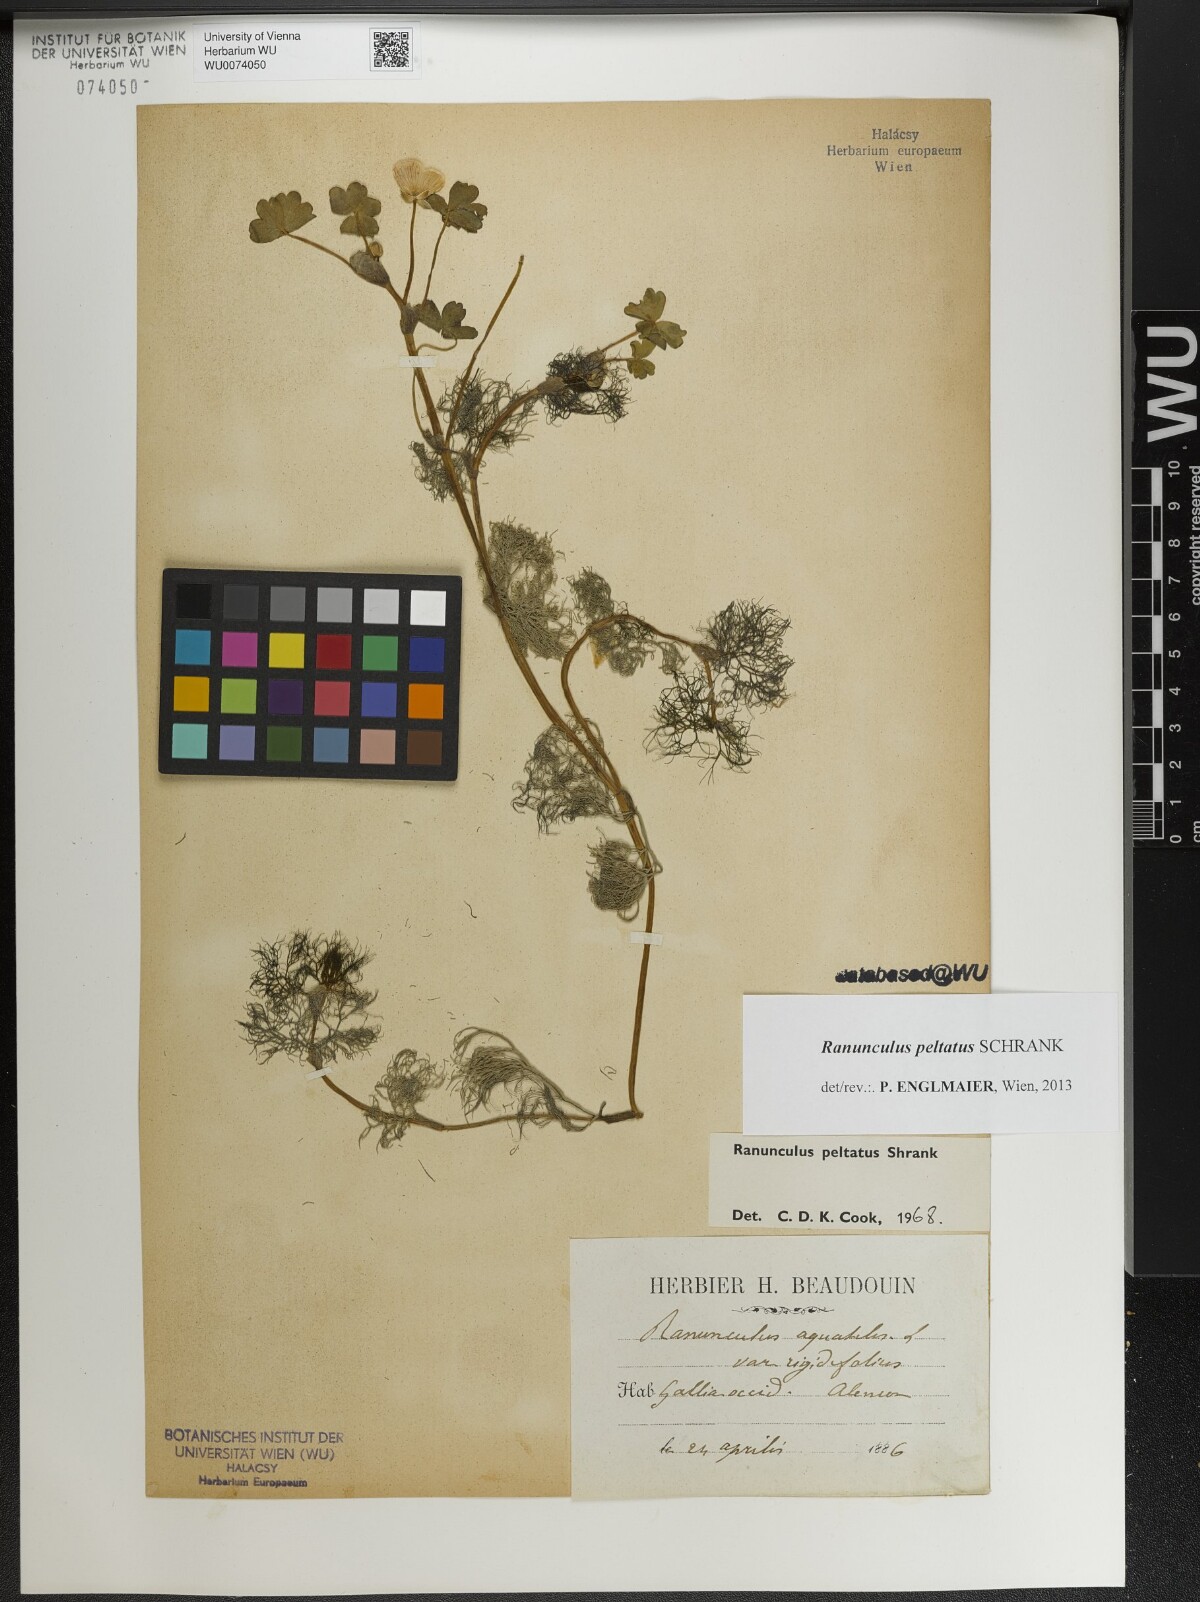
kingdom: Plantae
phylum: Tracheophyta
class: Magnoliopsida
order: Ranunculales
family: Ranunculaceae
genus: Ranunculus
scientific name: Ranunculus peltatus
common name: Pond water-crowfoot
